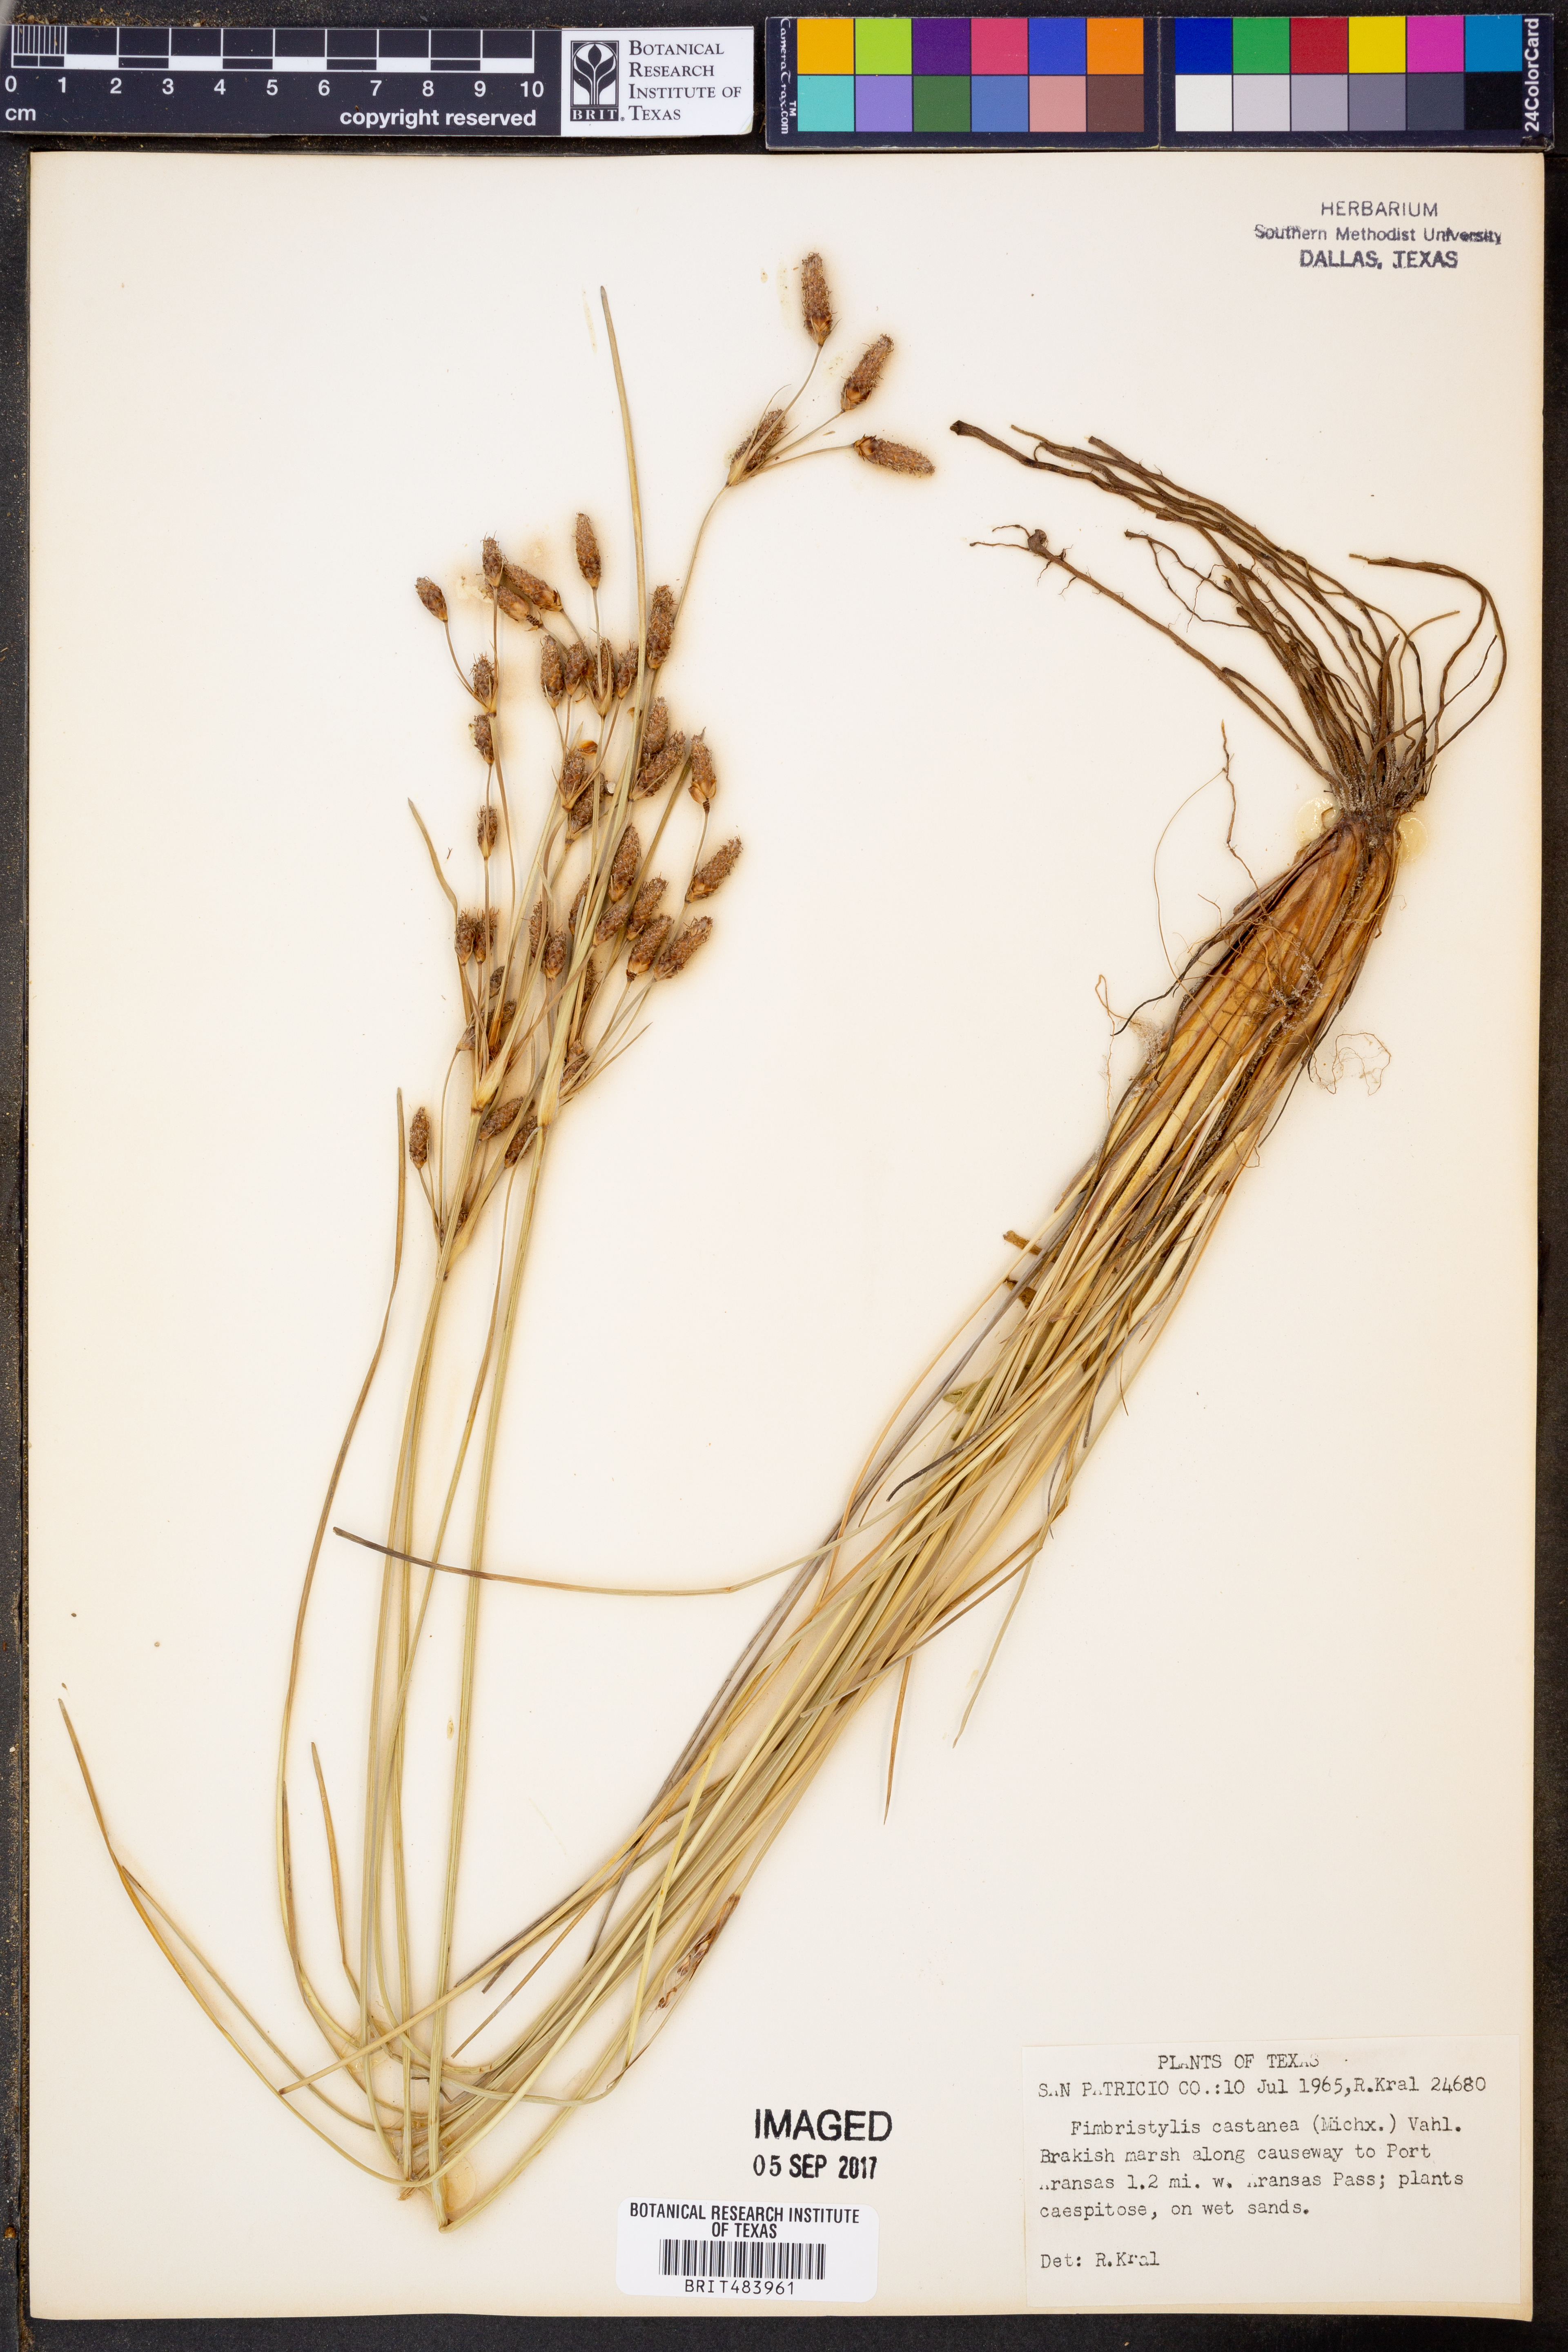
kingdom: Plantae
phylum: Tracheophyta
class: Liliopsida
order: Poales
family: Cyperaceae
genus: Fimbristylis
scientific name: Fimbristylis spadicea
